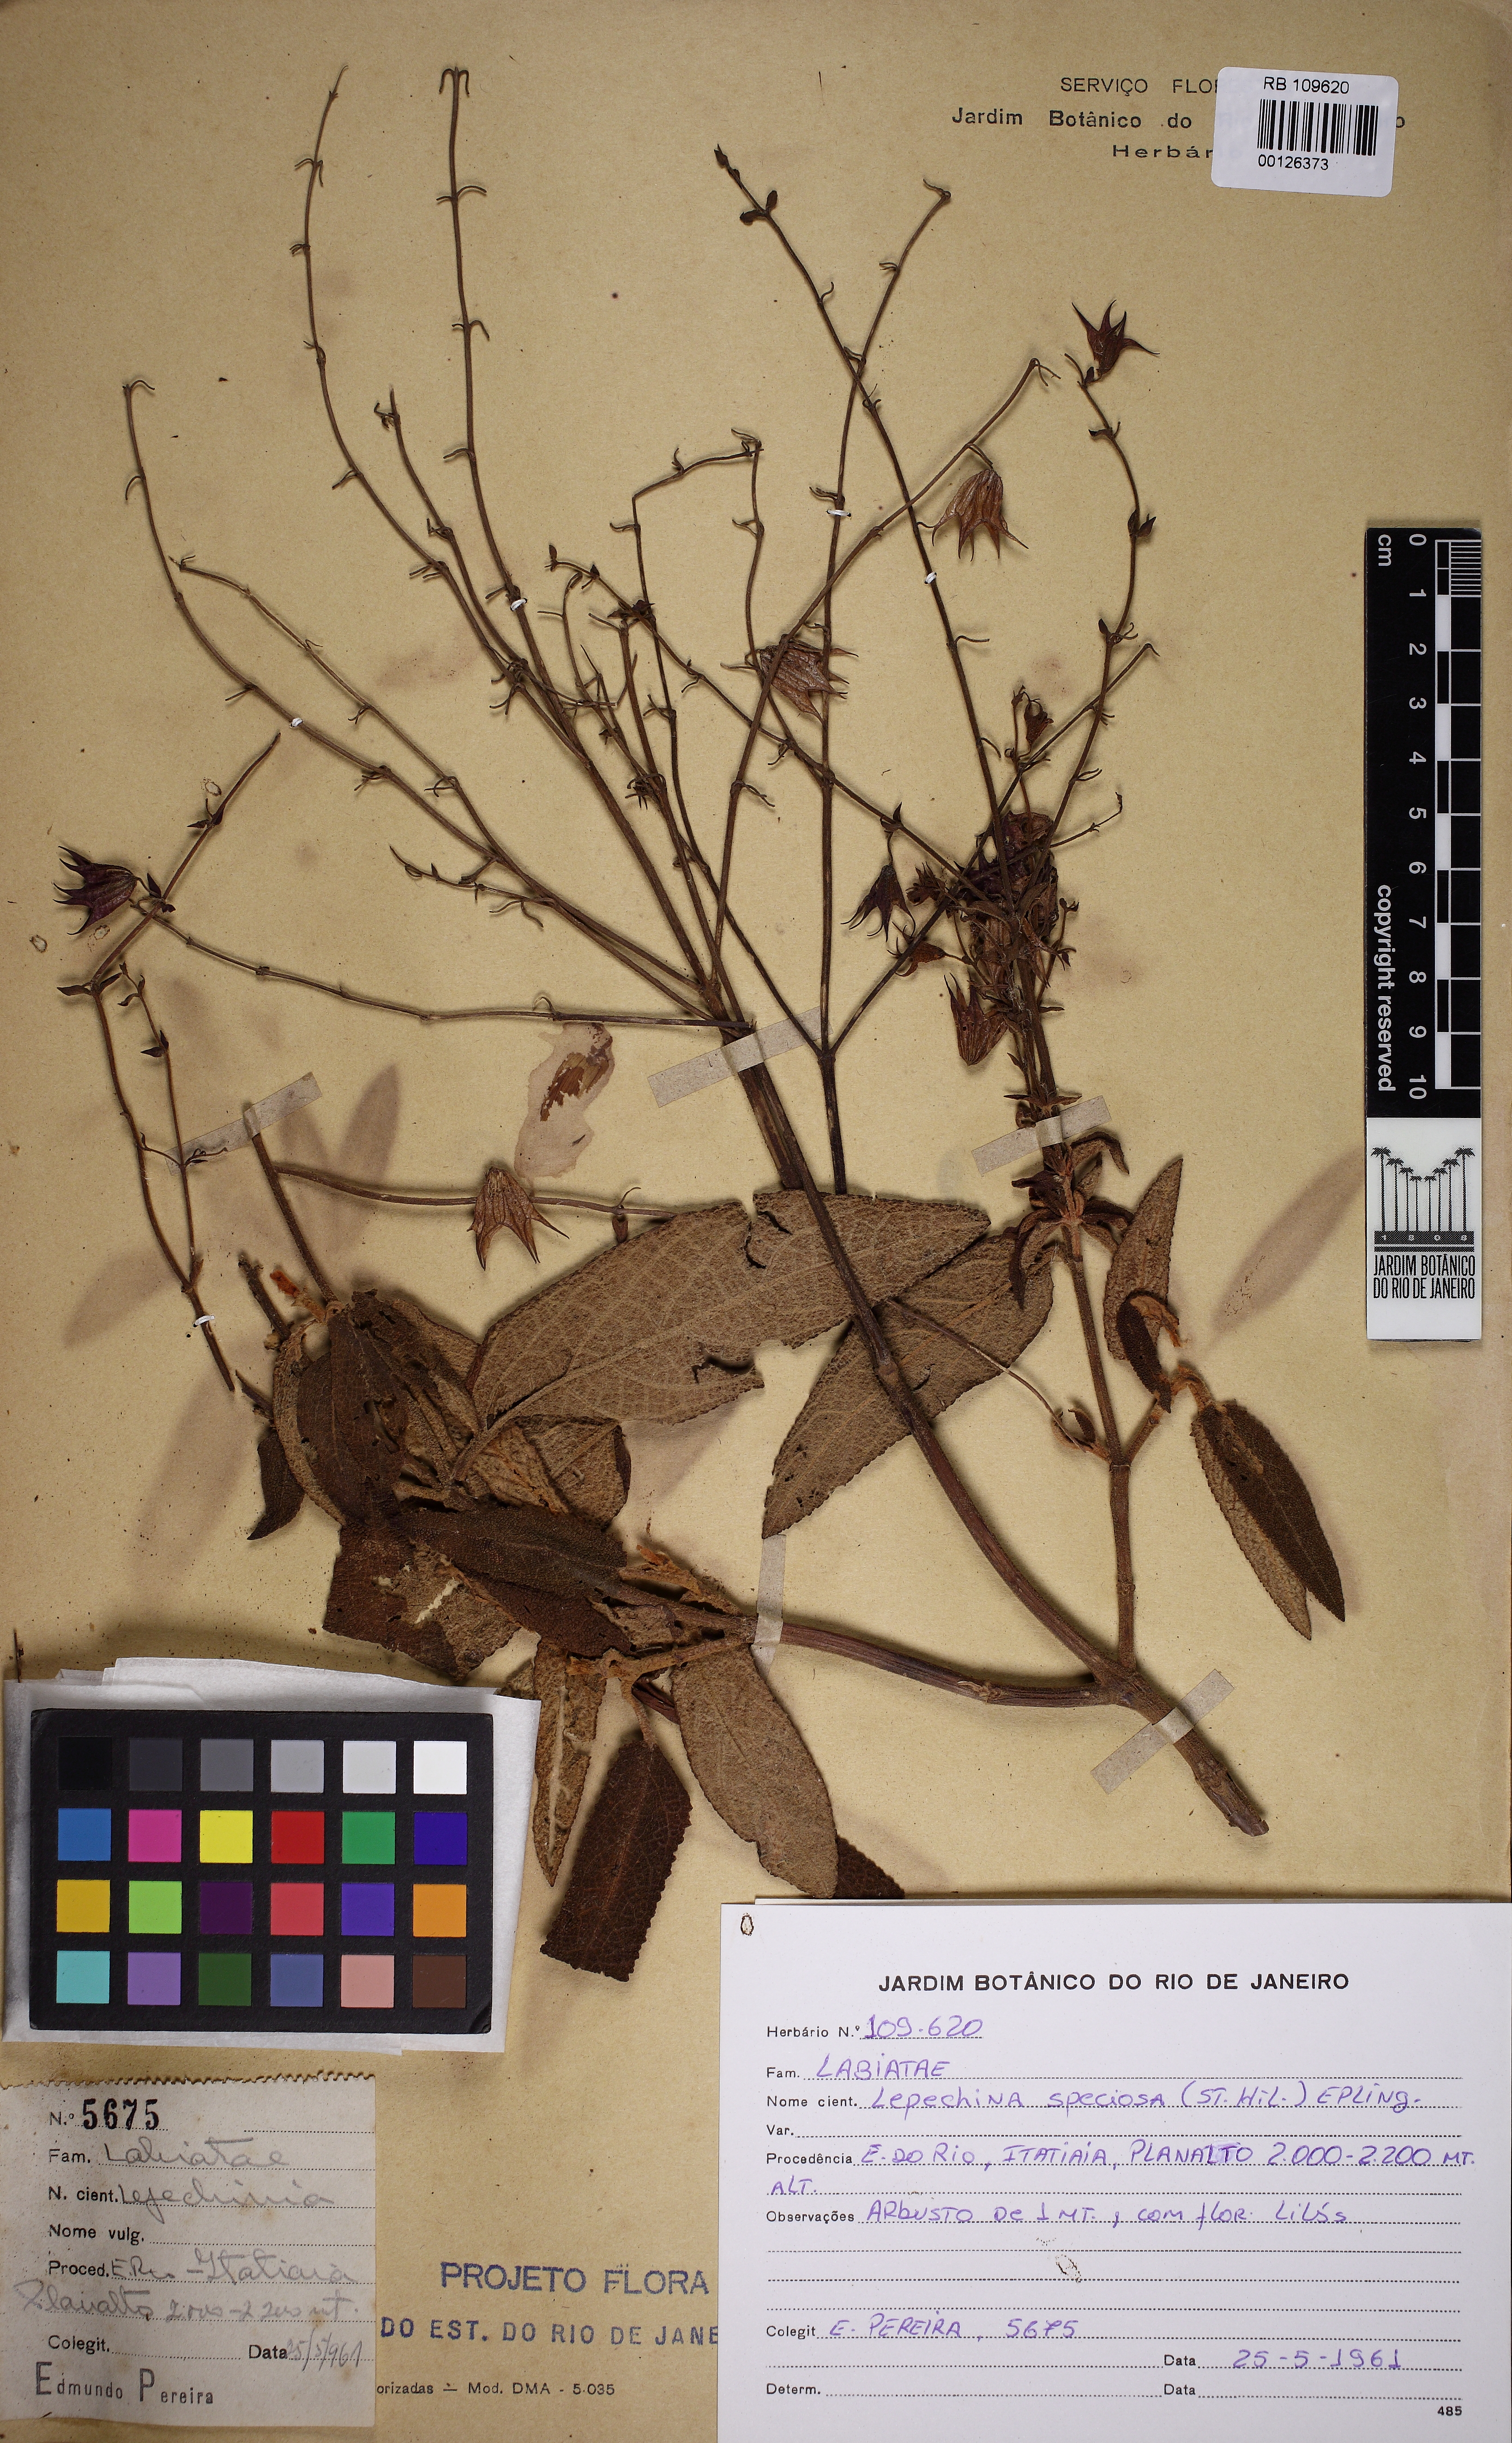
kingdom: Plantae
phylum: Tracheophyta
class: Magnoliopsida
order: Lamiales
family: Lamiaceae
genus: Lepechinia
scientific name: Lepechinia speciosa
